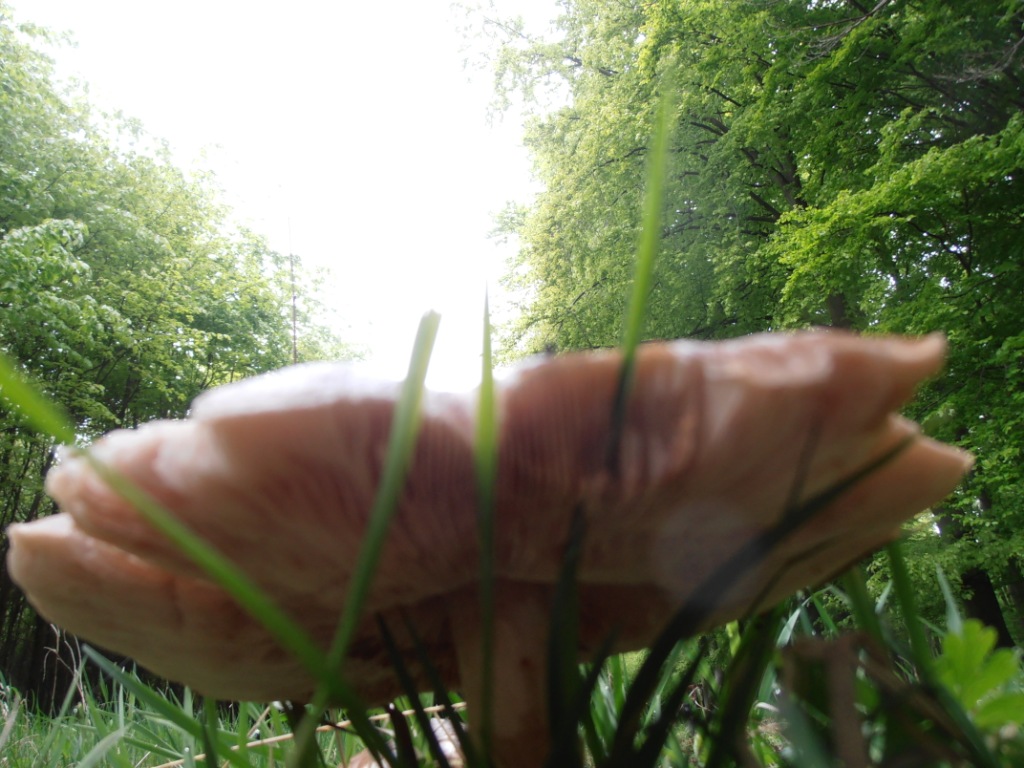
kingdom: Fungi
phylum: Basidiomycota
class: Agaricomycetes
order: Agaricales
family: Pluteaceae
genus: Pluteus
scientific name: Pluteus cervinus
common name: sodfarvet skærmhat
